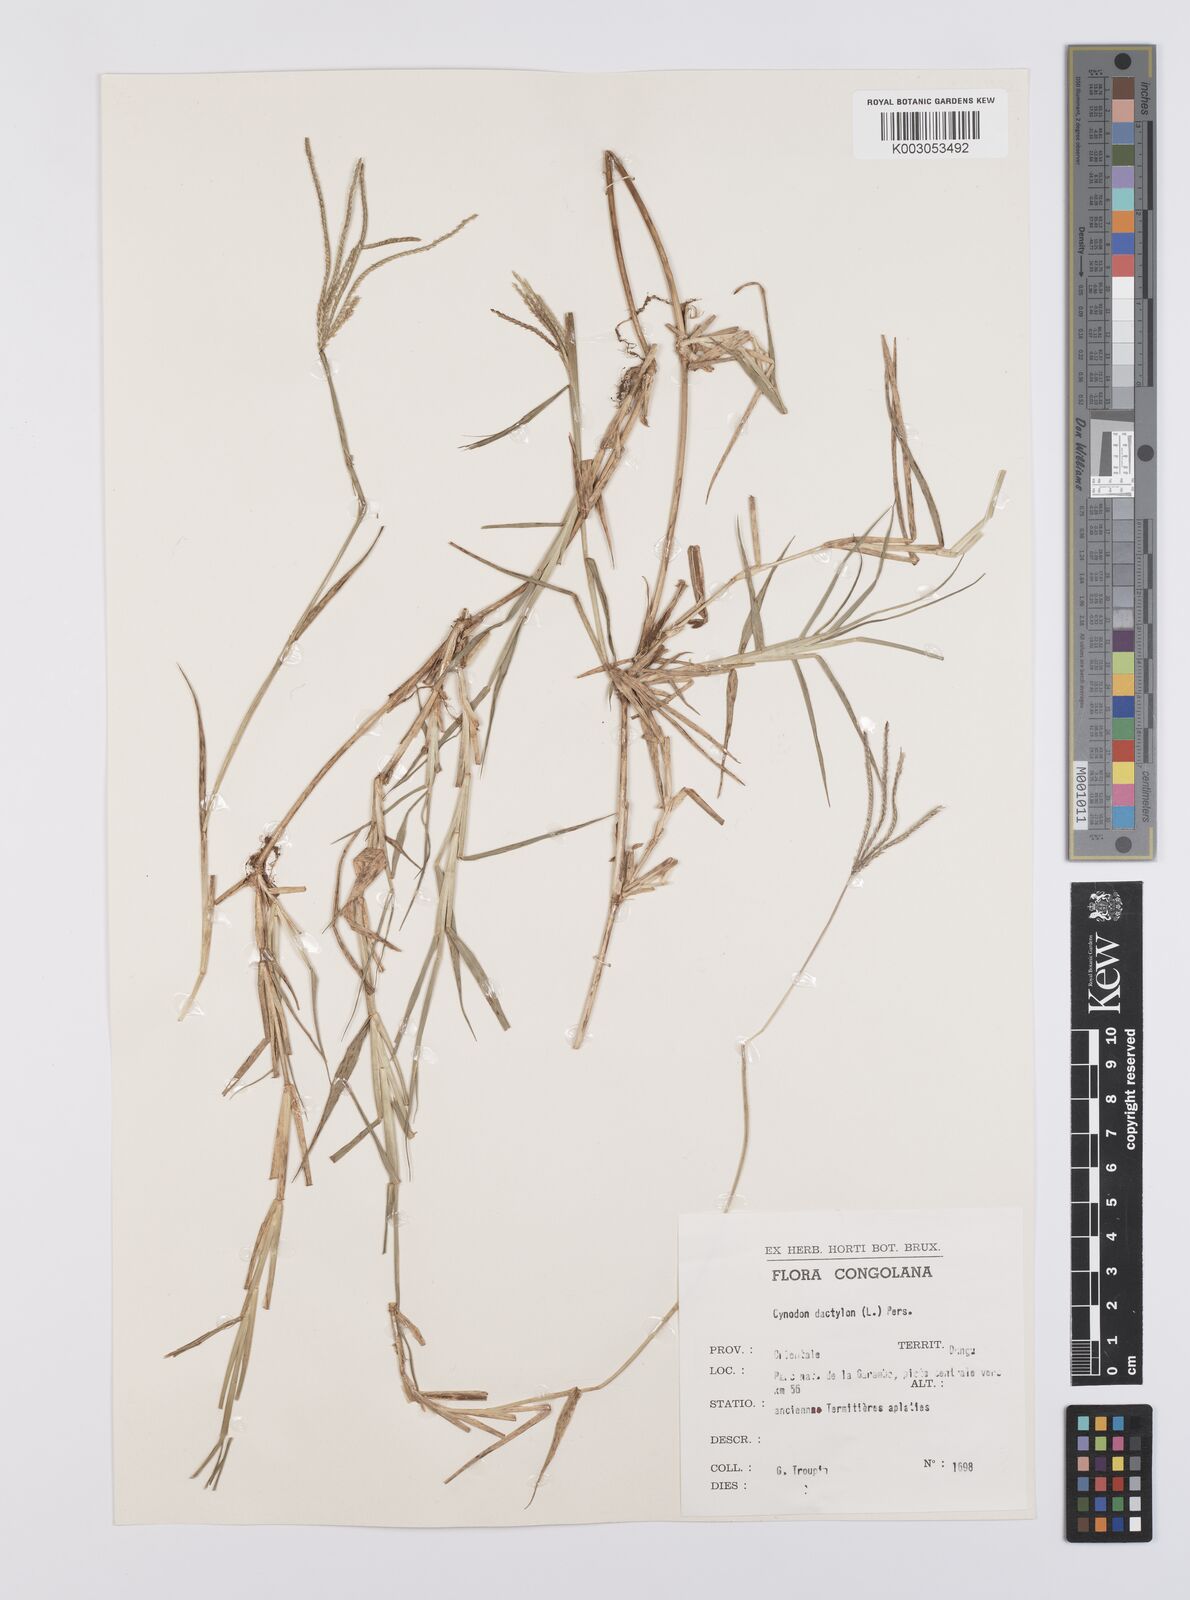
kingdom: Plantae
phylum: Tracheophyta
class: Liliopsida
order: Poales
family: Poaceae
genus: Cynodon
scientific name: Cynodon nlemfuensis
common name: African bermudagrass
